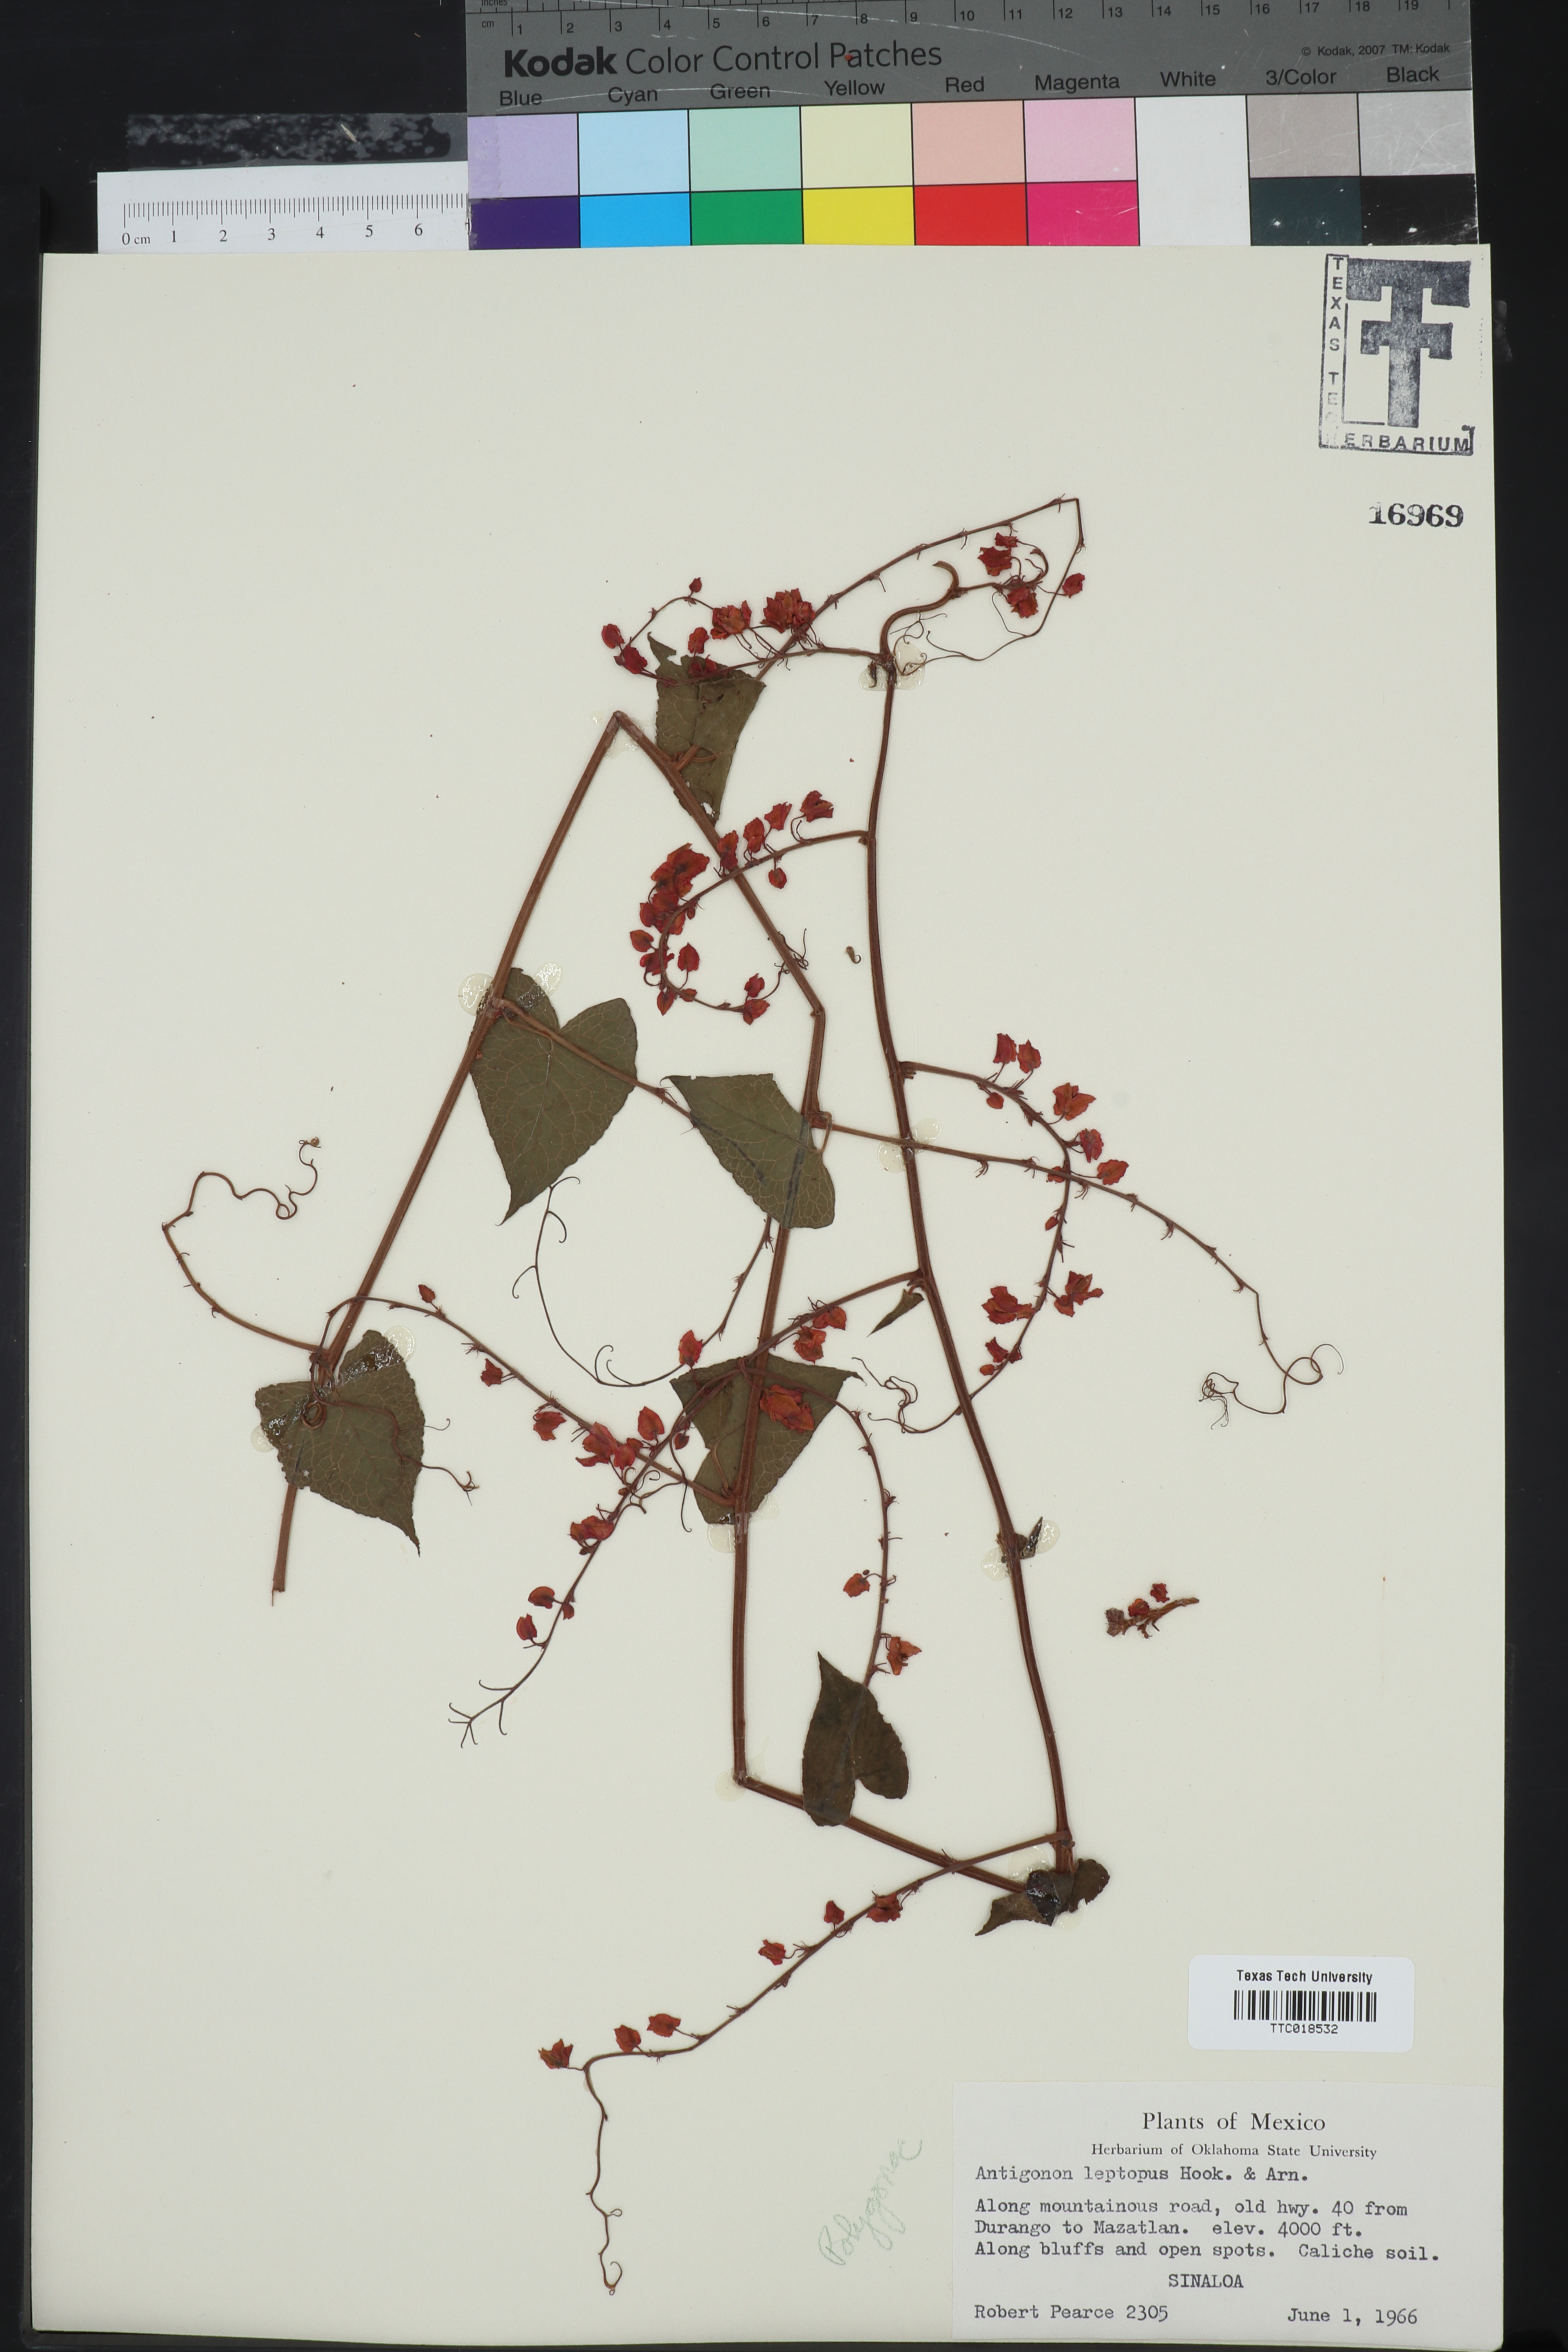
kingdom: Plantae
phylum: Tracheophyta
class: Magnoliopsida
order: Caryophyllales
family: Polygonaceae
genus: Antigonon
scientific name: Antigonon leptopus
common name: Coral vine
